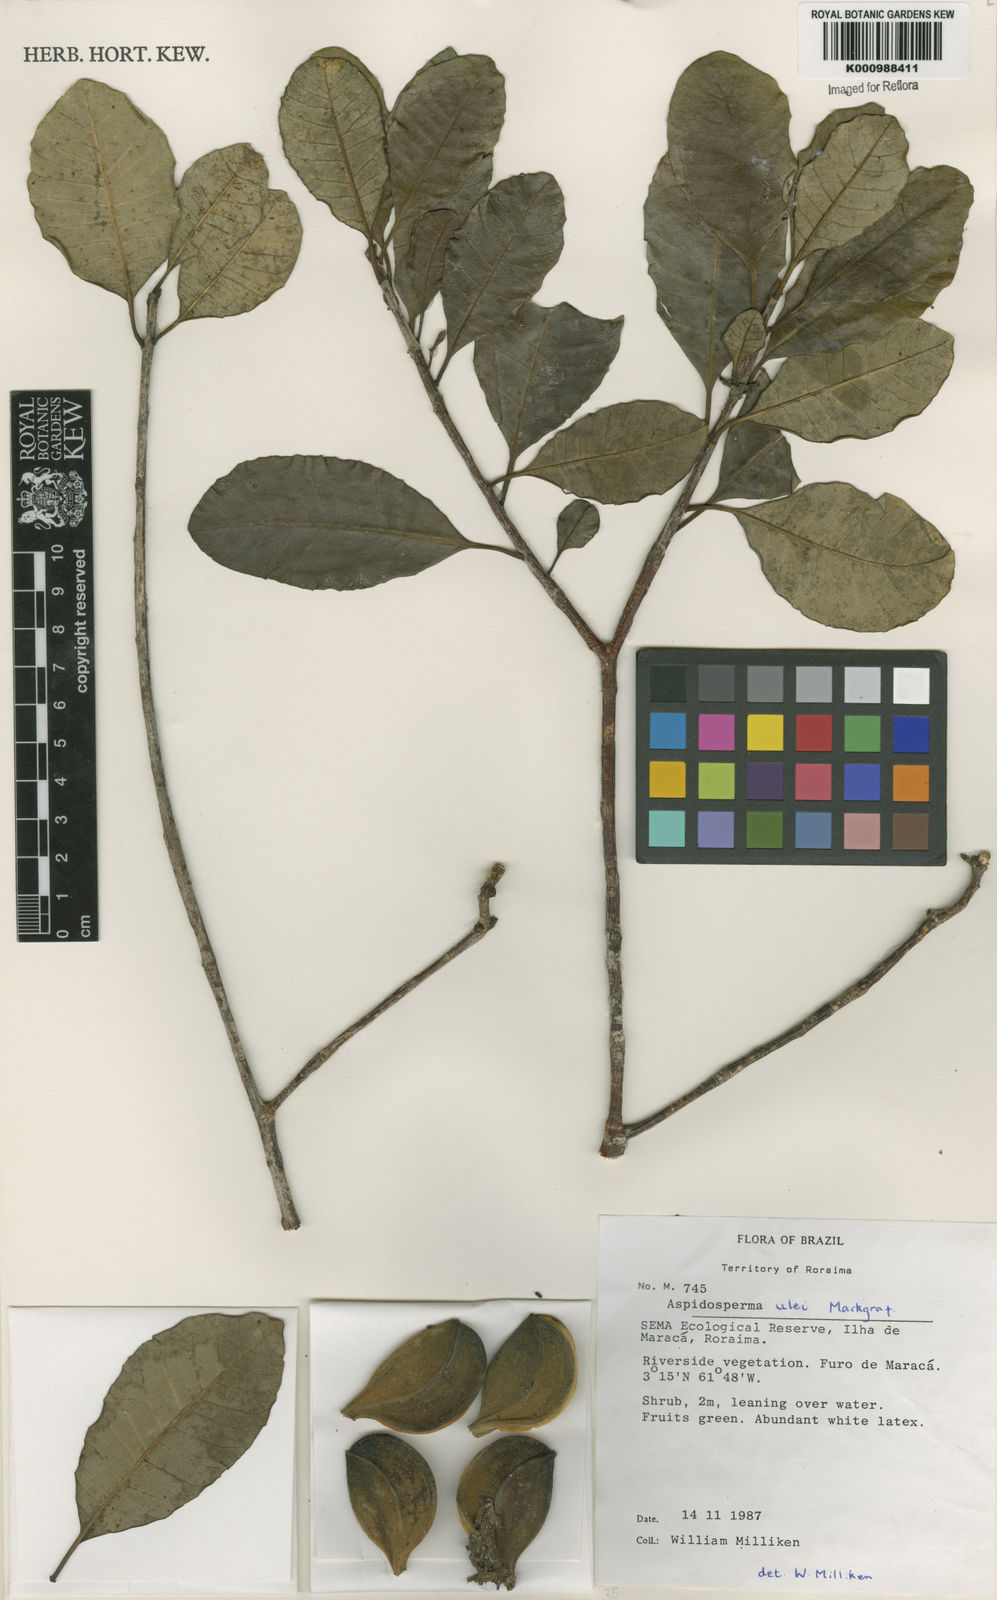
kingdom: Plantae
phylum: Tracheophyta
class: Magnoliopsida
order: Gentianales
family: Apocynaceae
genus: Aspidosperma
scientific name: Aspidosperma ulei
